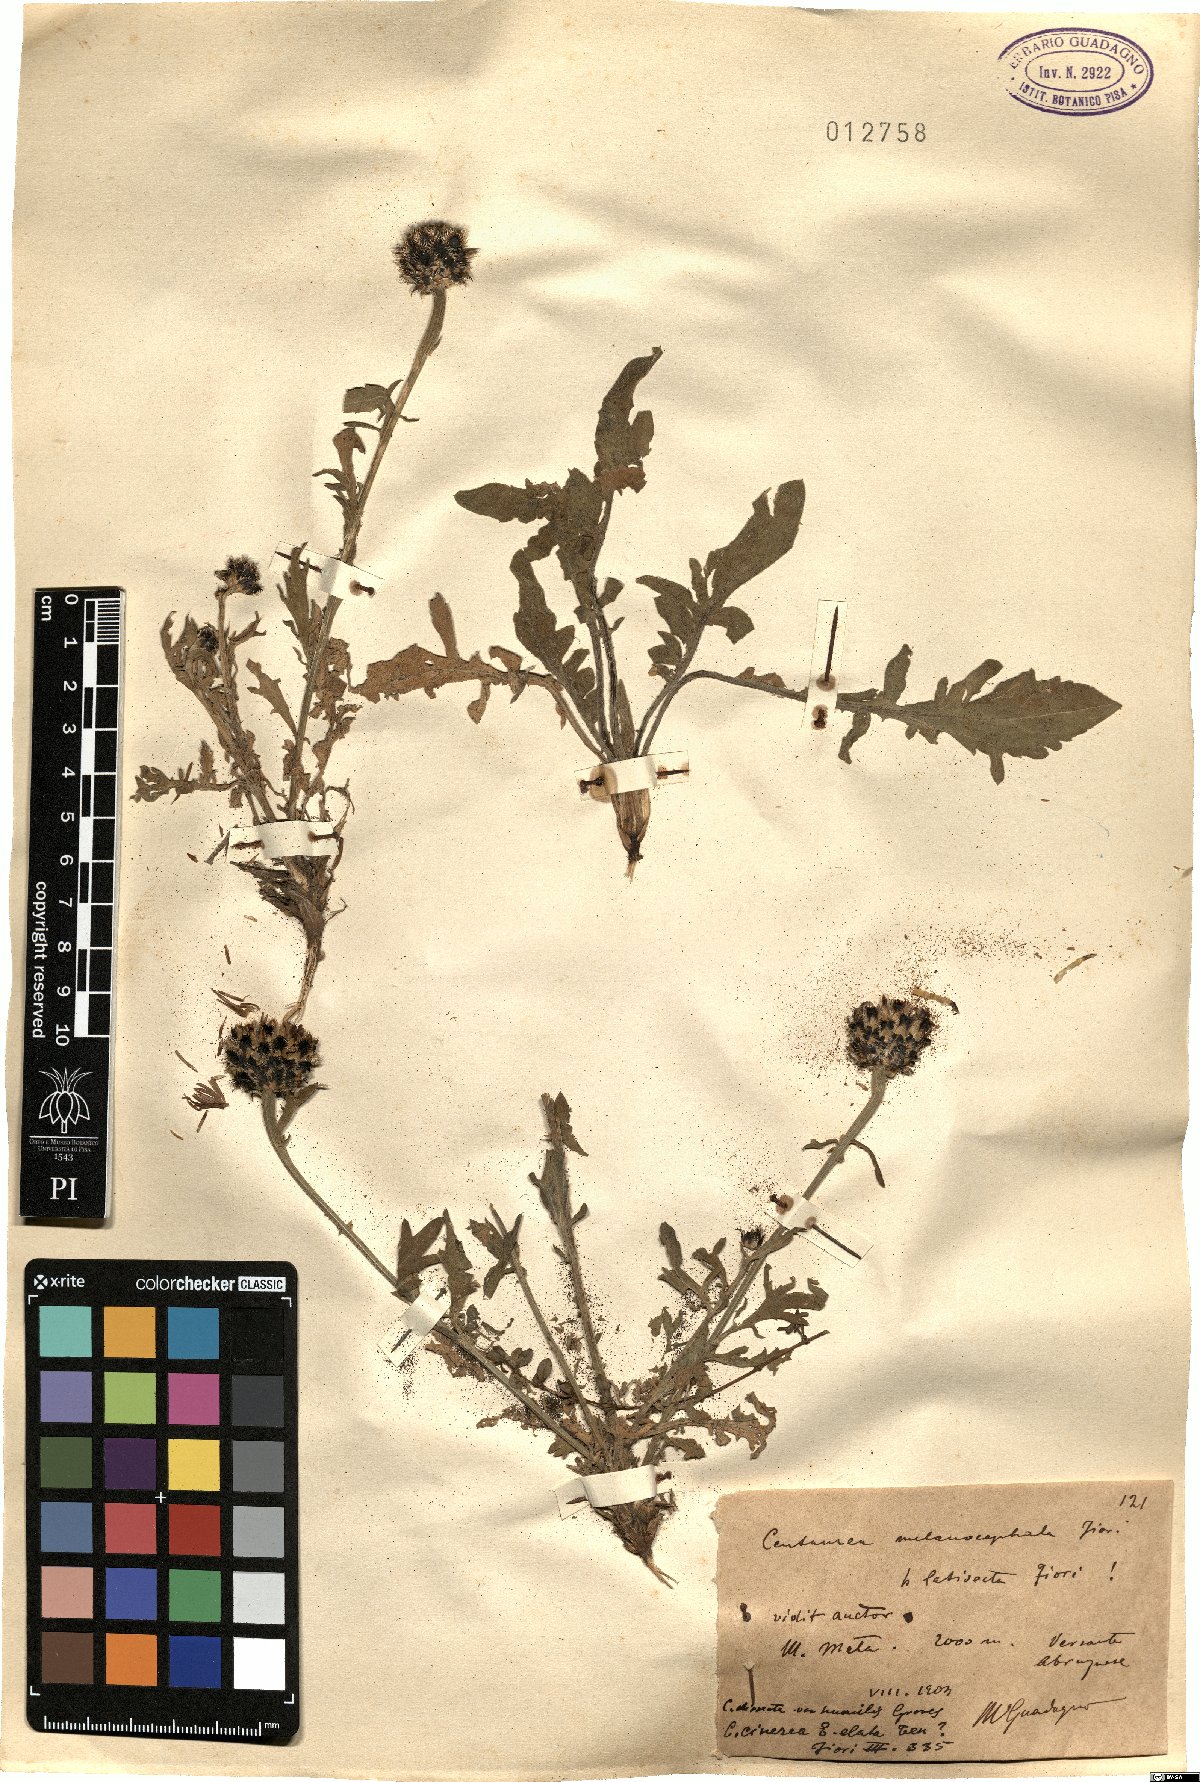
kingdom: Plantae
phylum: Tracheophyta
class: Magnoliopsida
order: Asterales
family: Asteraceae
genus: Centaurea
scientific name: Centaurea melanocephala
